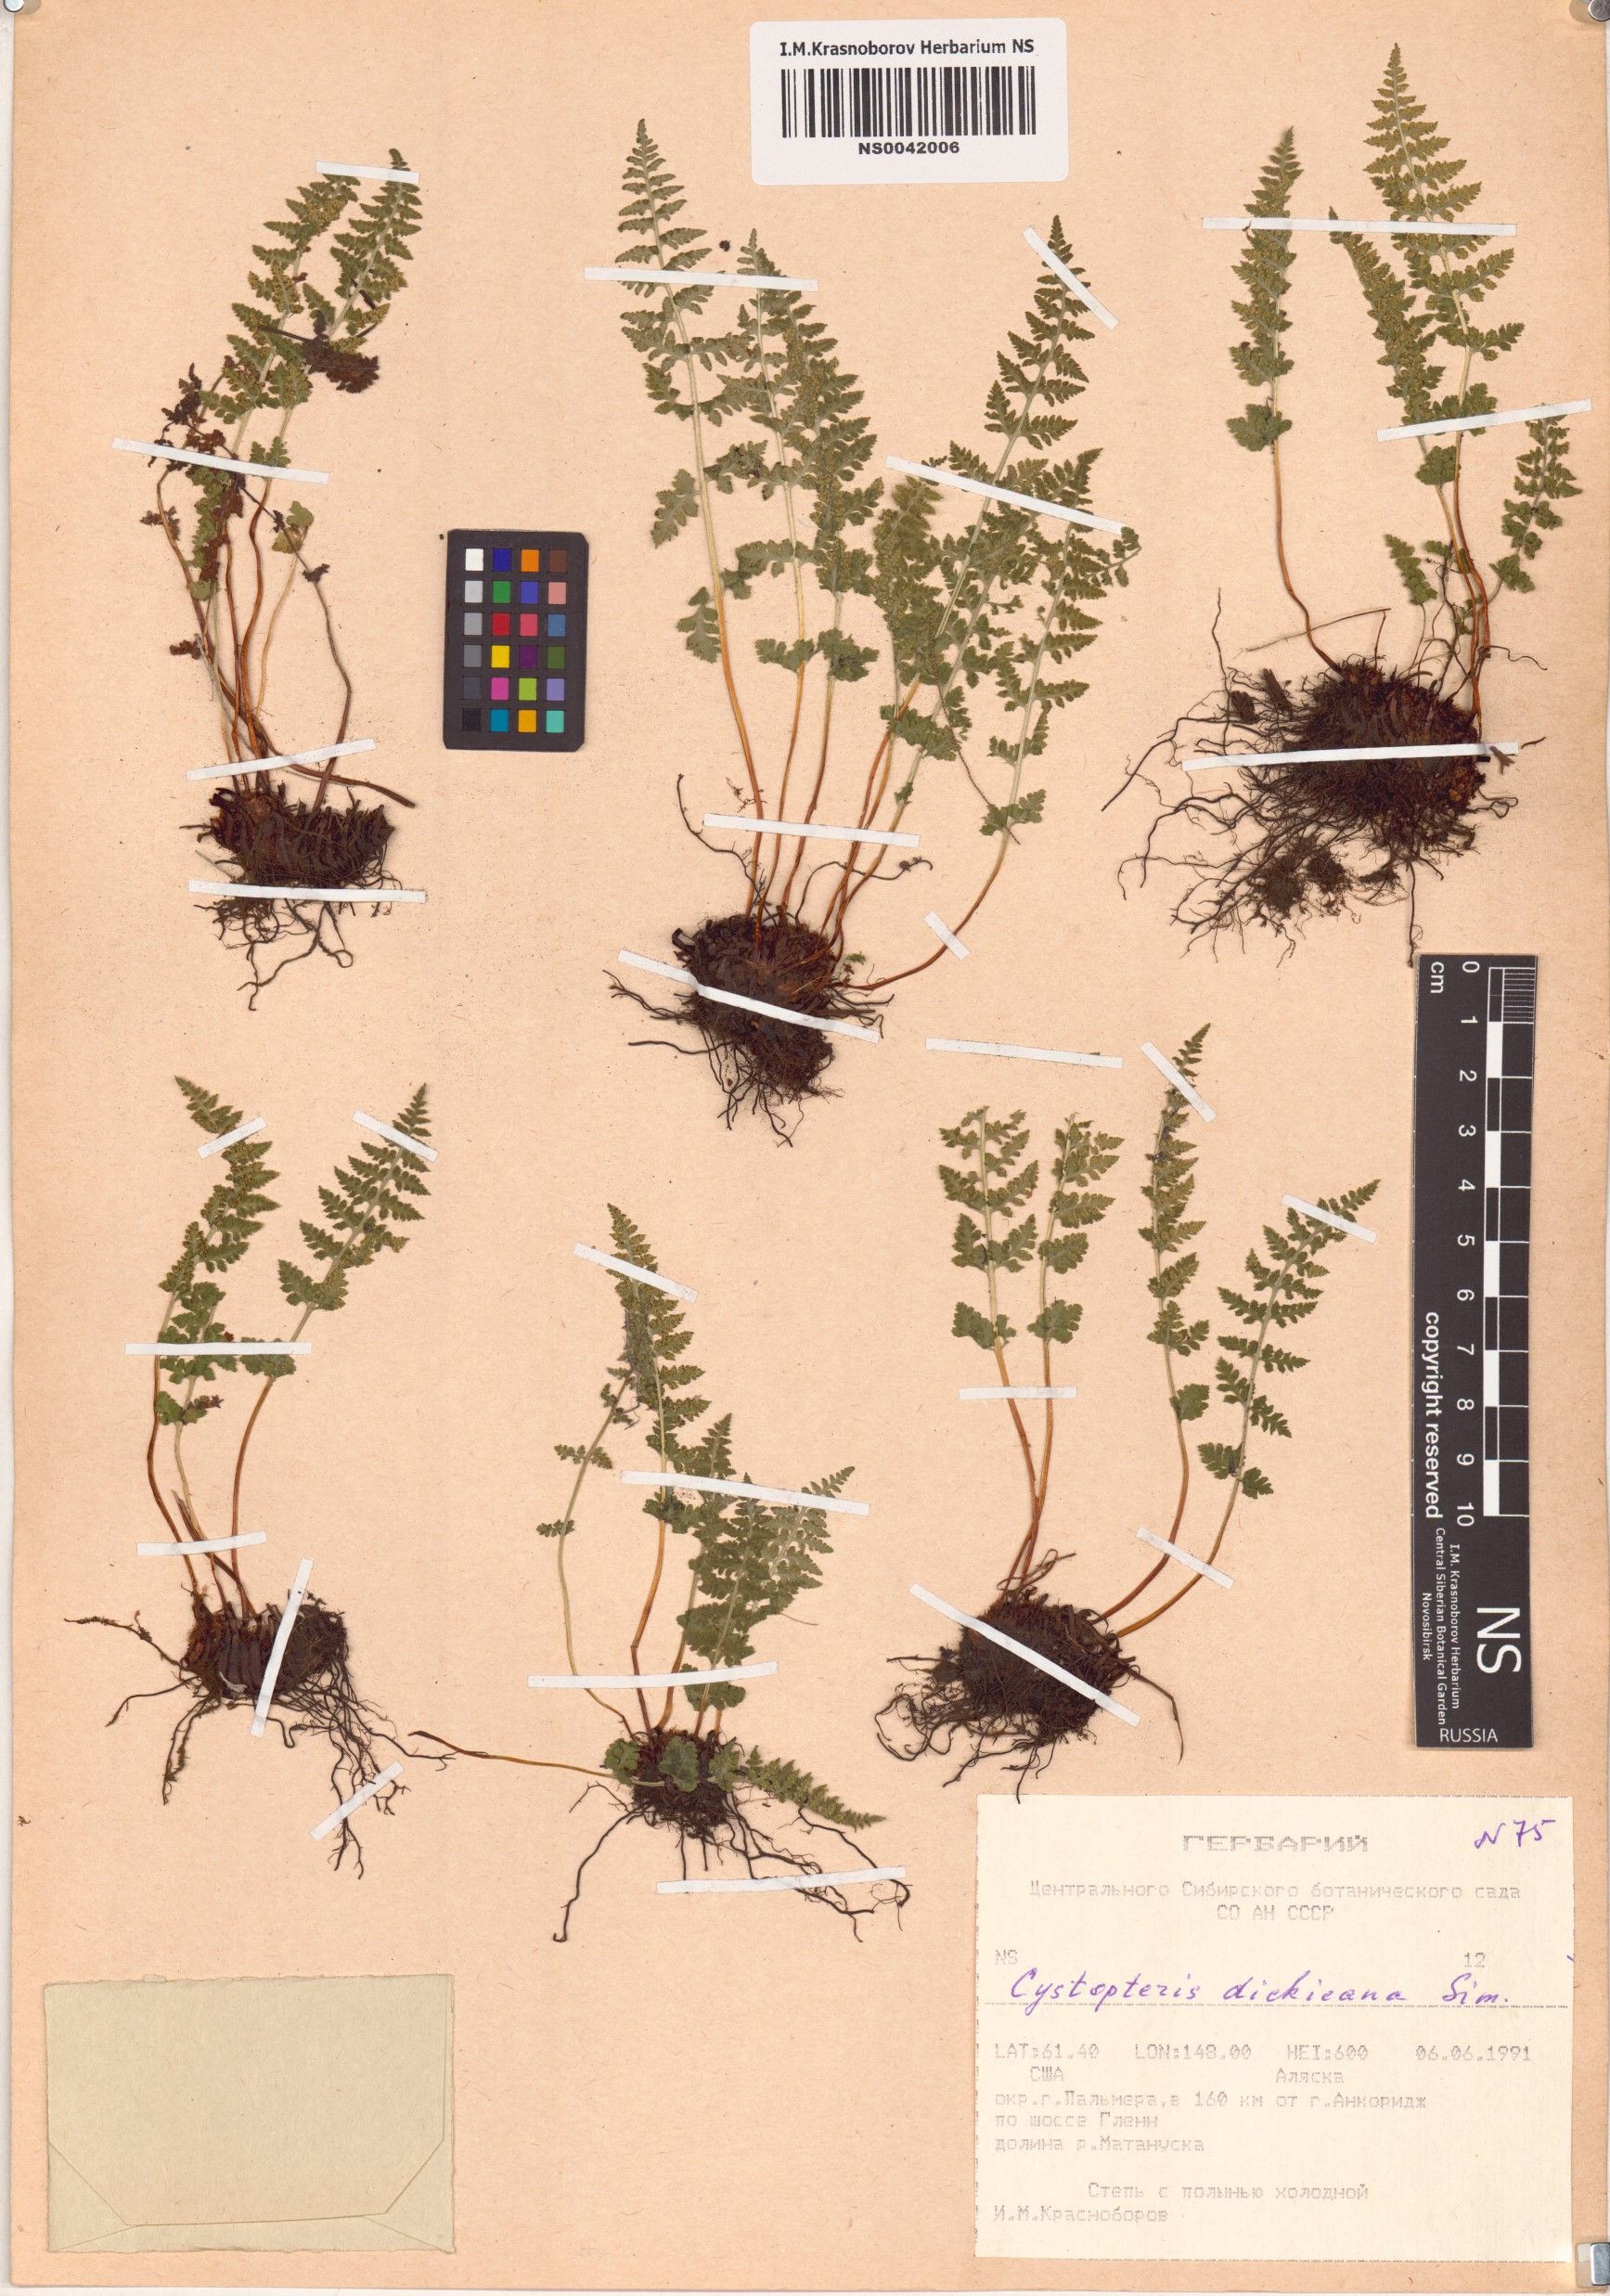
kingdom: Plantae
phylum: Tracheophyta
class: Polypodiopsida
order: Polypodiales
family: Cystopteridaceae
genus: Cystopteris
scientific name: Cystopteris dickieana
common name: Dickie's bladder-fern
